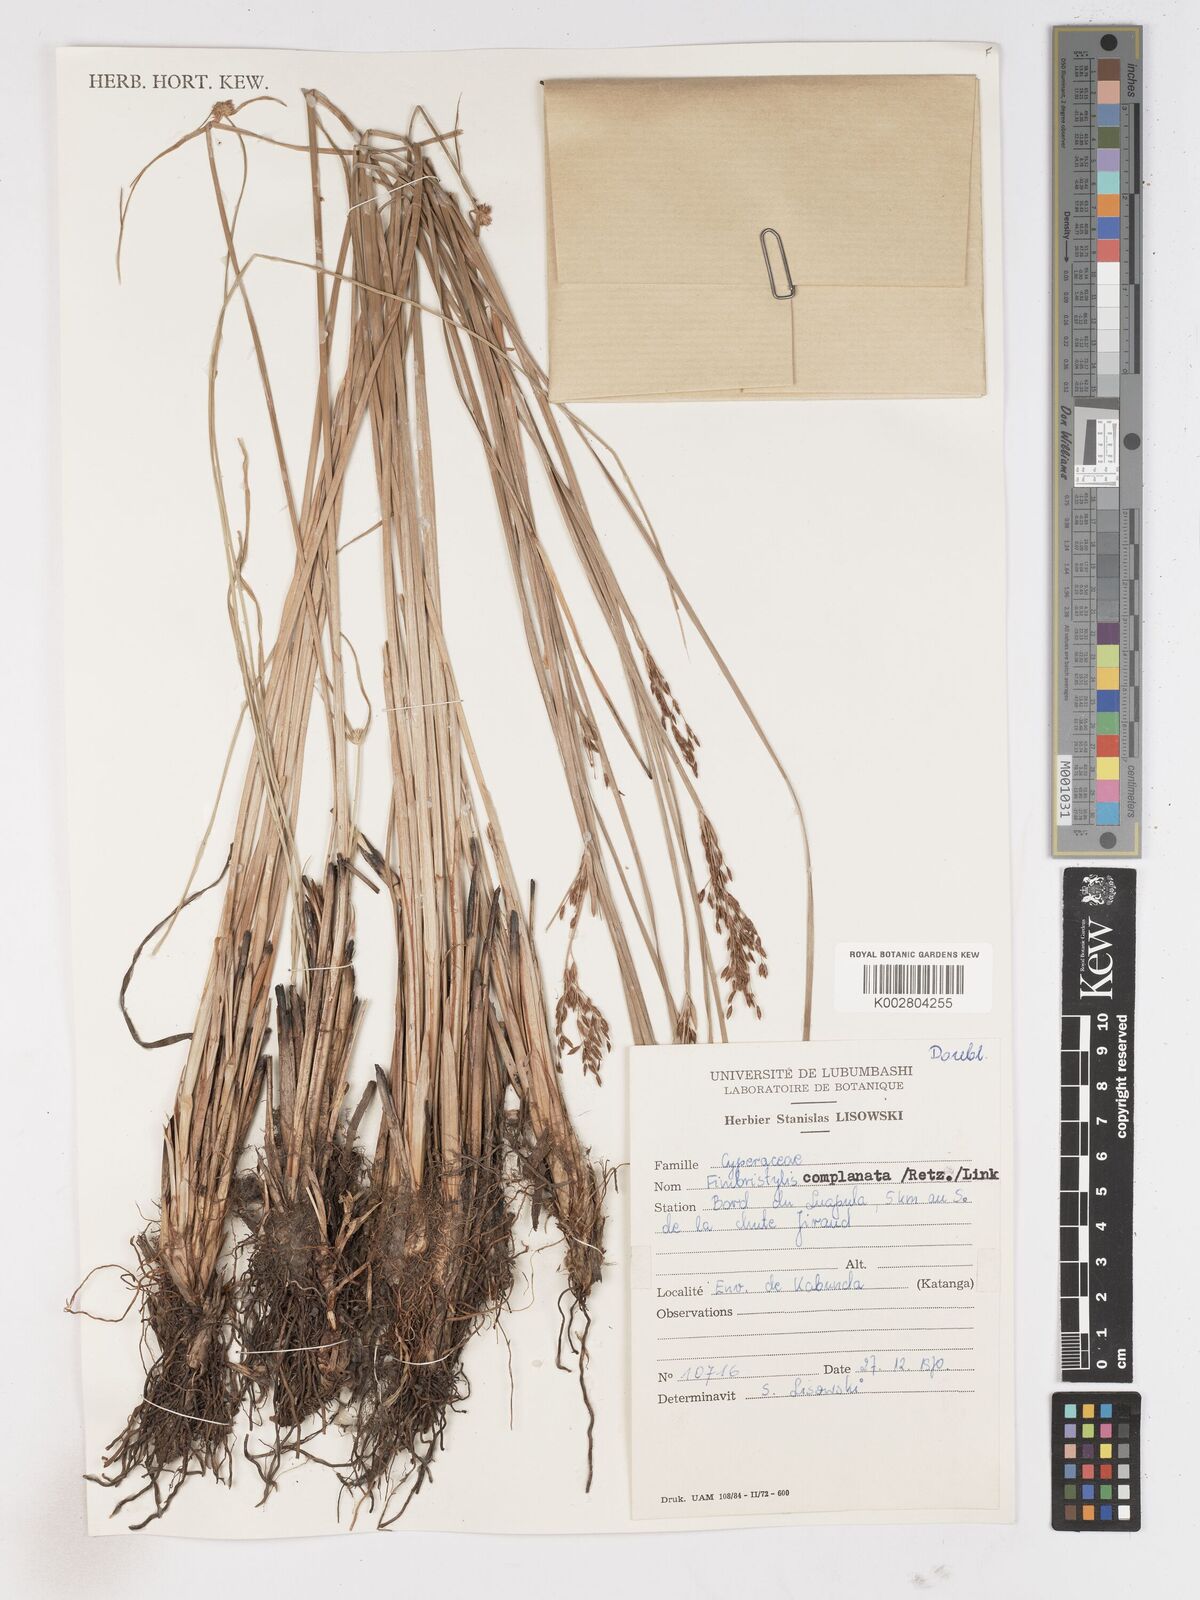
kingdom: Plantae
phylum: Tracheophyta
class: Liliopsida
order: Poales
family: Cyperaceae
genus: Fimbristylis
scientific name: Fimbristylis complanata
